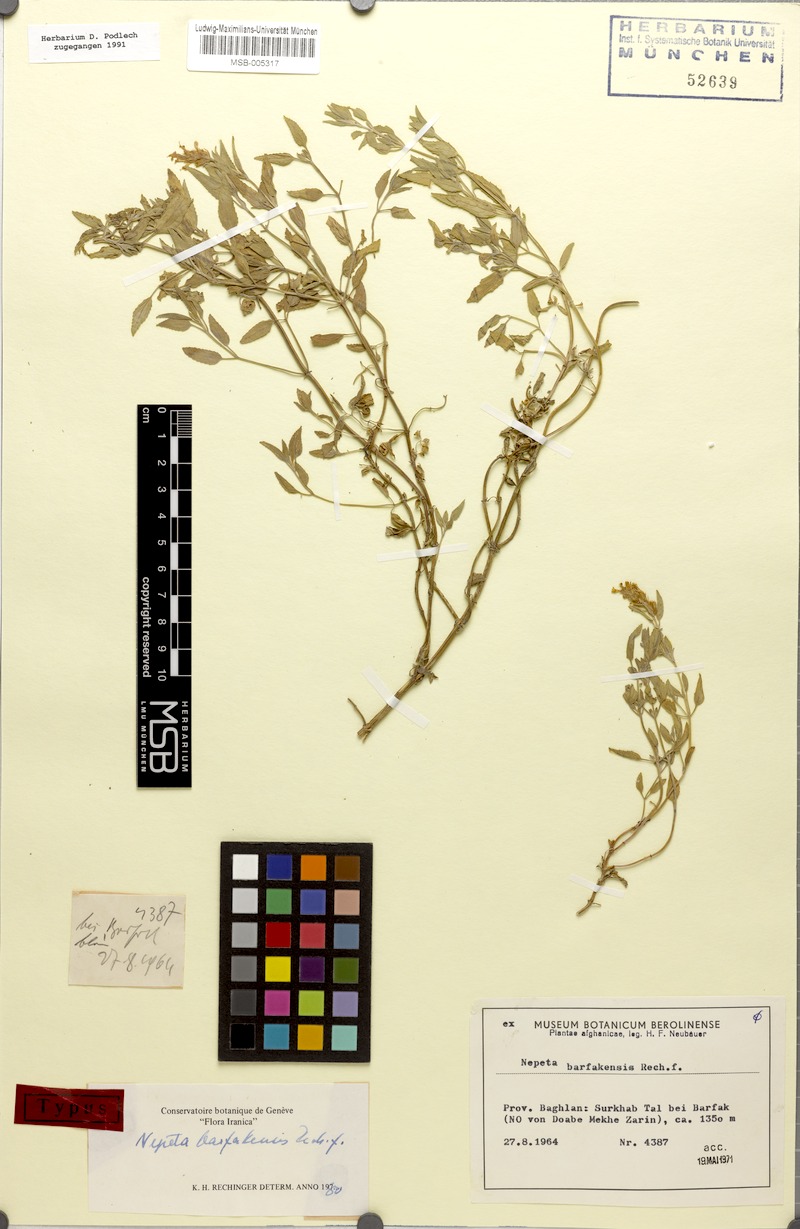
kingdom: Plantae
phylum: Tracheophyta
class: Magnoliopsida
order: Lamiales
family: Lamiaceae
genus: Nepeta
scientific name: Nepeta barfakensis
